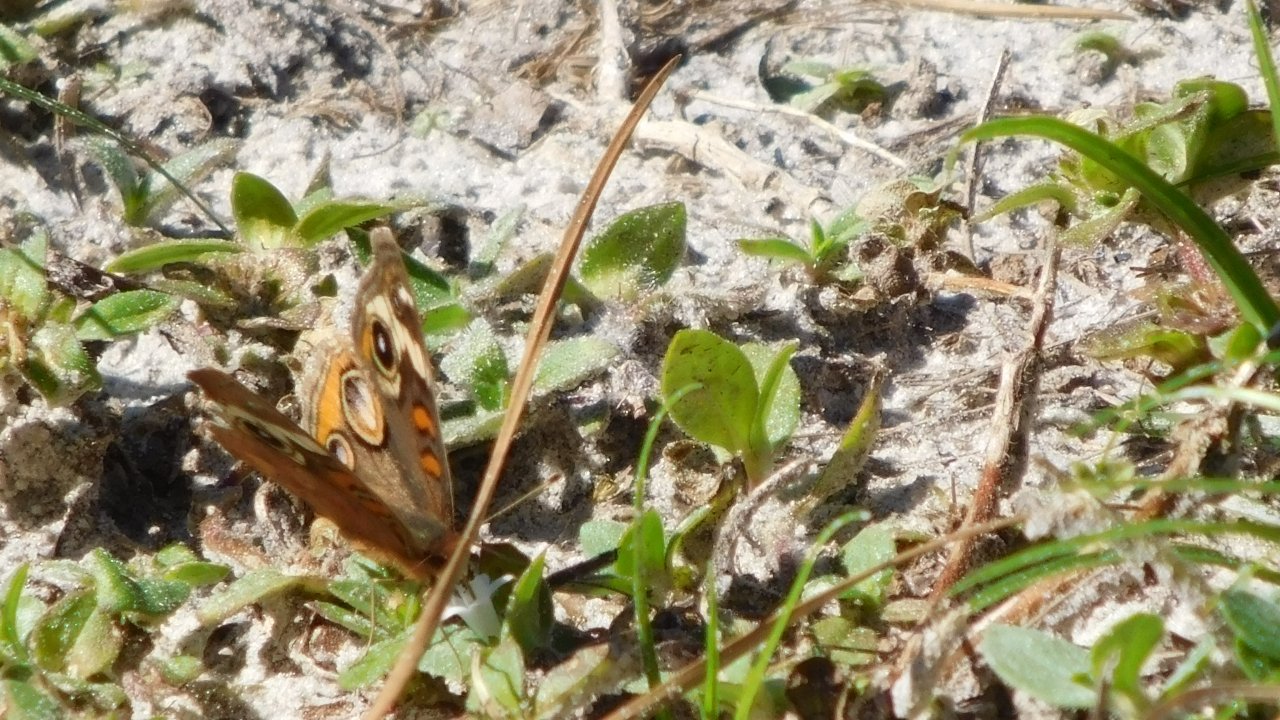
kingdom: Animalia
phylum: Arthropoda
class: Insecta
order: Lepidoptera
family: Nymphalidae
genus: Junonia
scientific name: Junonia coenia
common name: Common Buckeye
